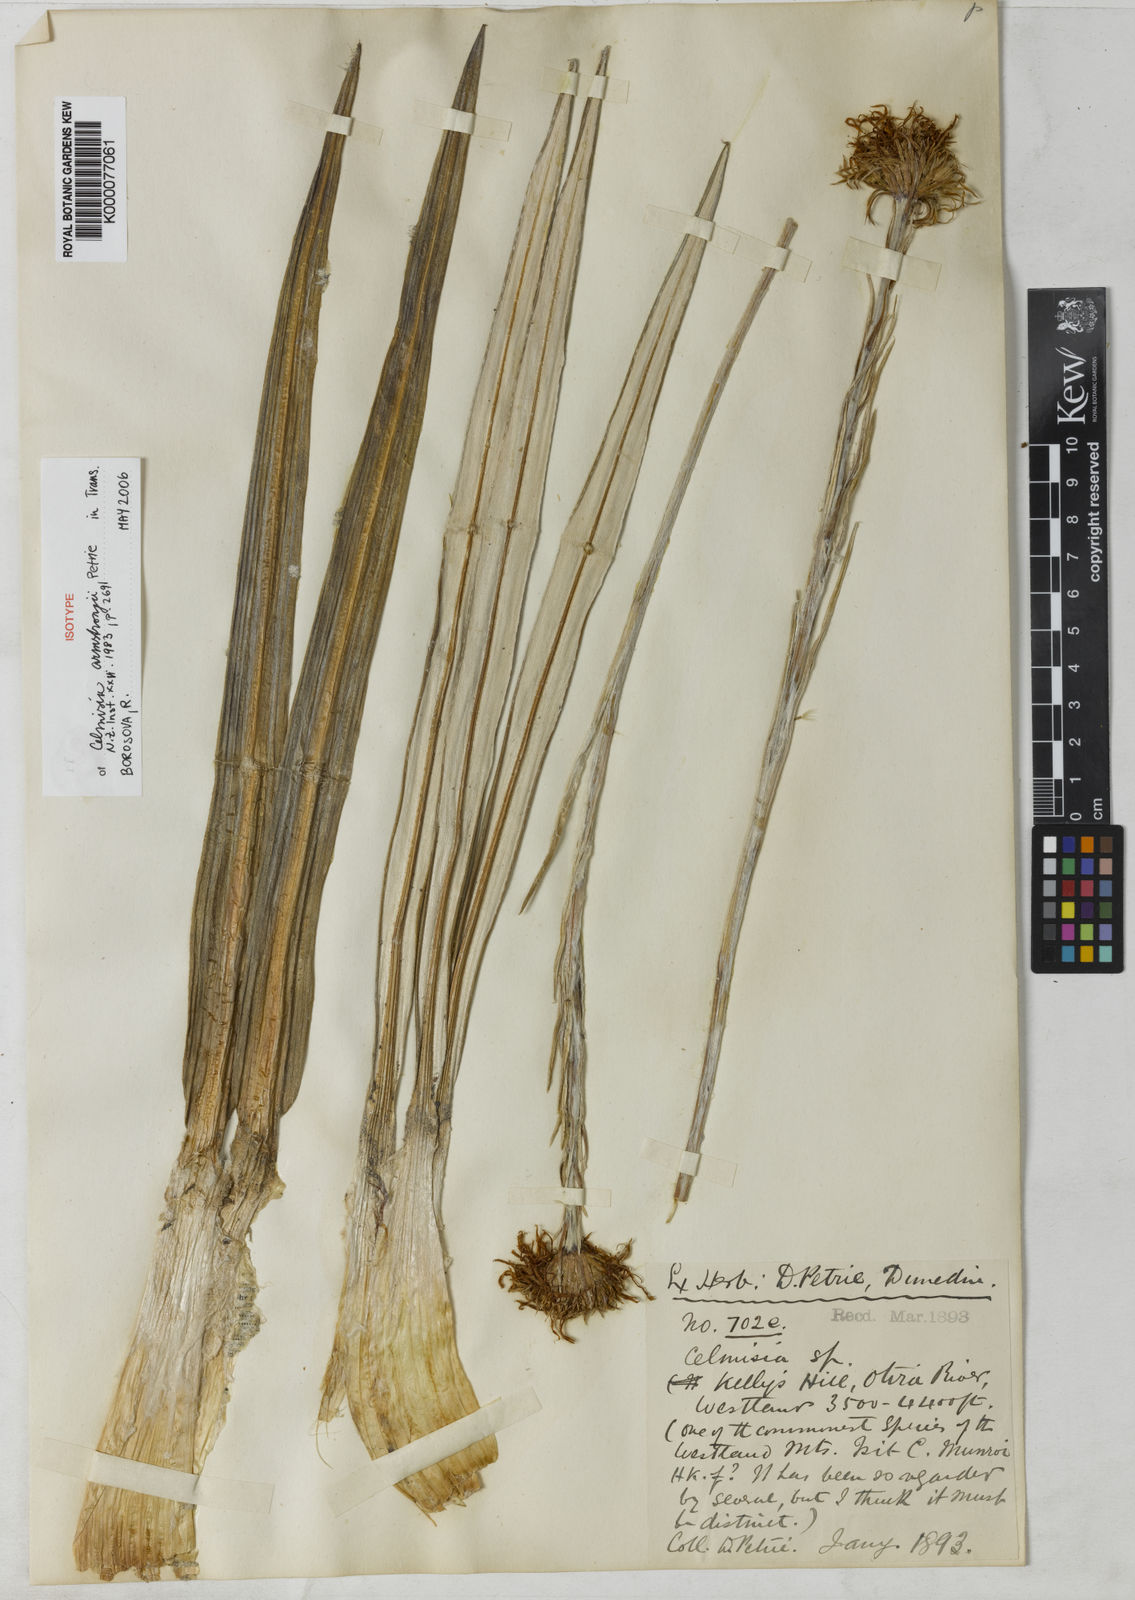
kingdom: Plantae
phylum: Tracheophyta
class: Magnoliopsida
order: Asterales
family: Asteraceae
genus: Celmisia
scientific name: Celmisia armstrongii
